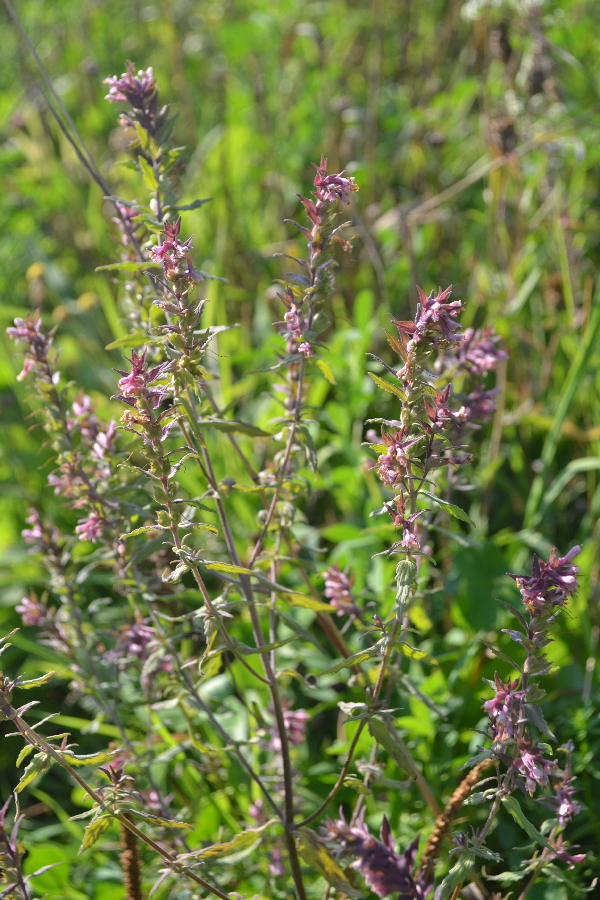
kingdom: Plantae
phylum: Tracheophyta
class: Magnoliopsida
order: Lamiales
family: Orobanchaceae
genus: Odontites
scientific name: Odontites vulgaris
